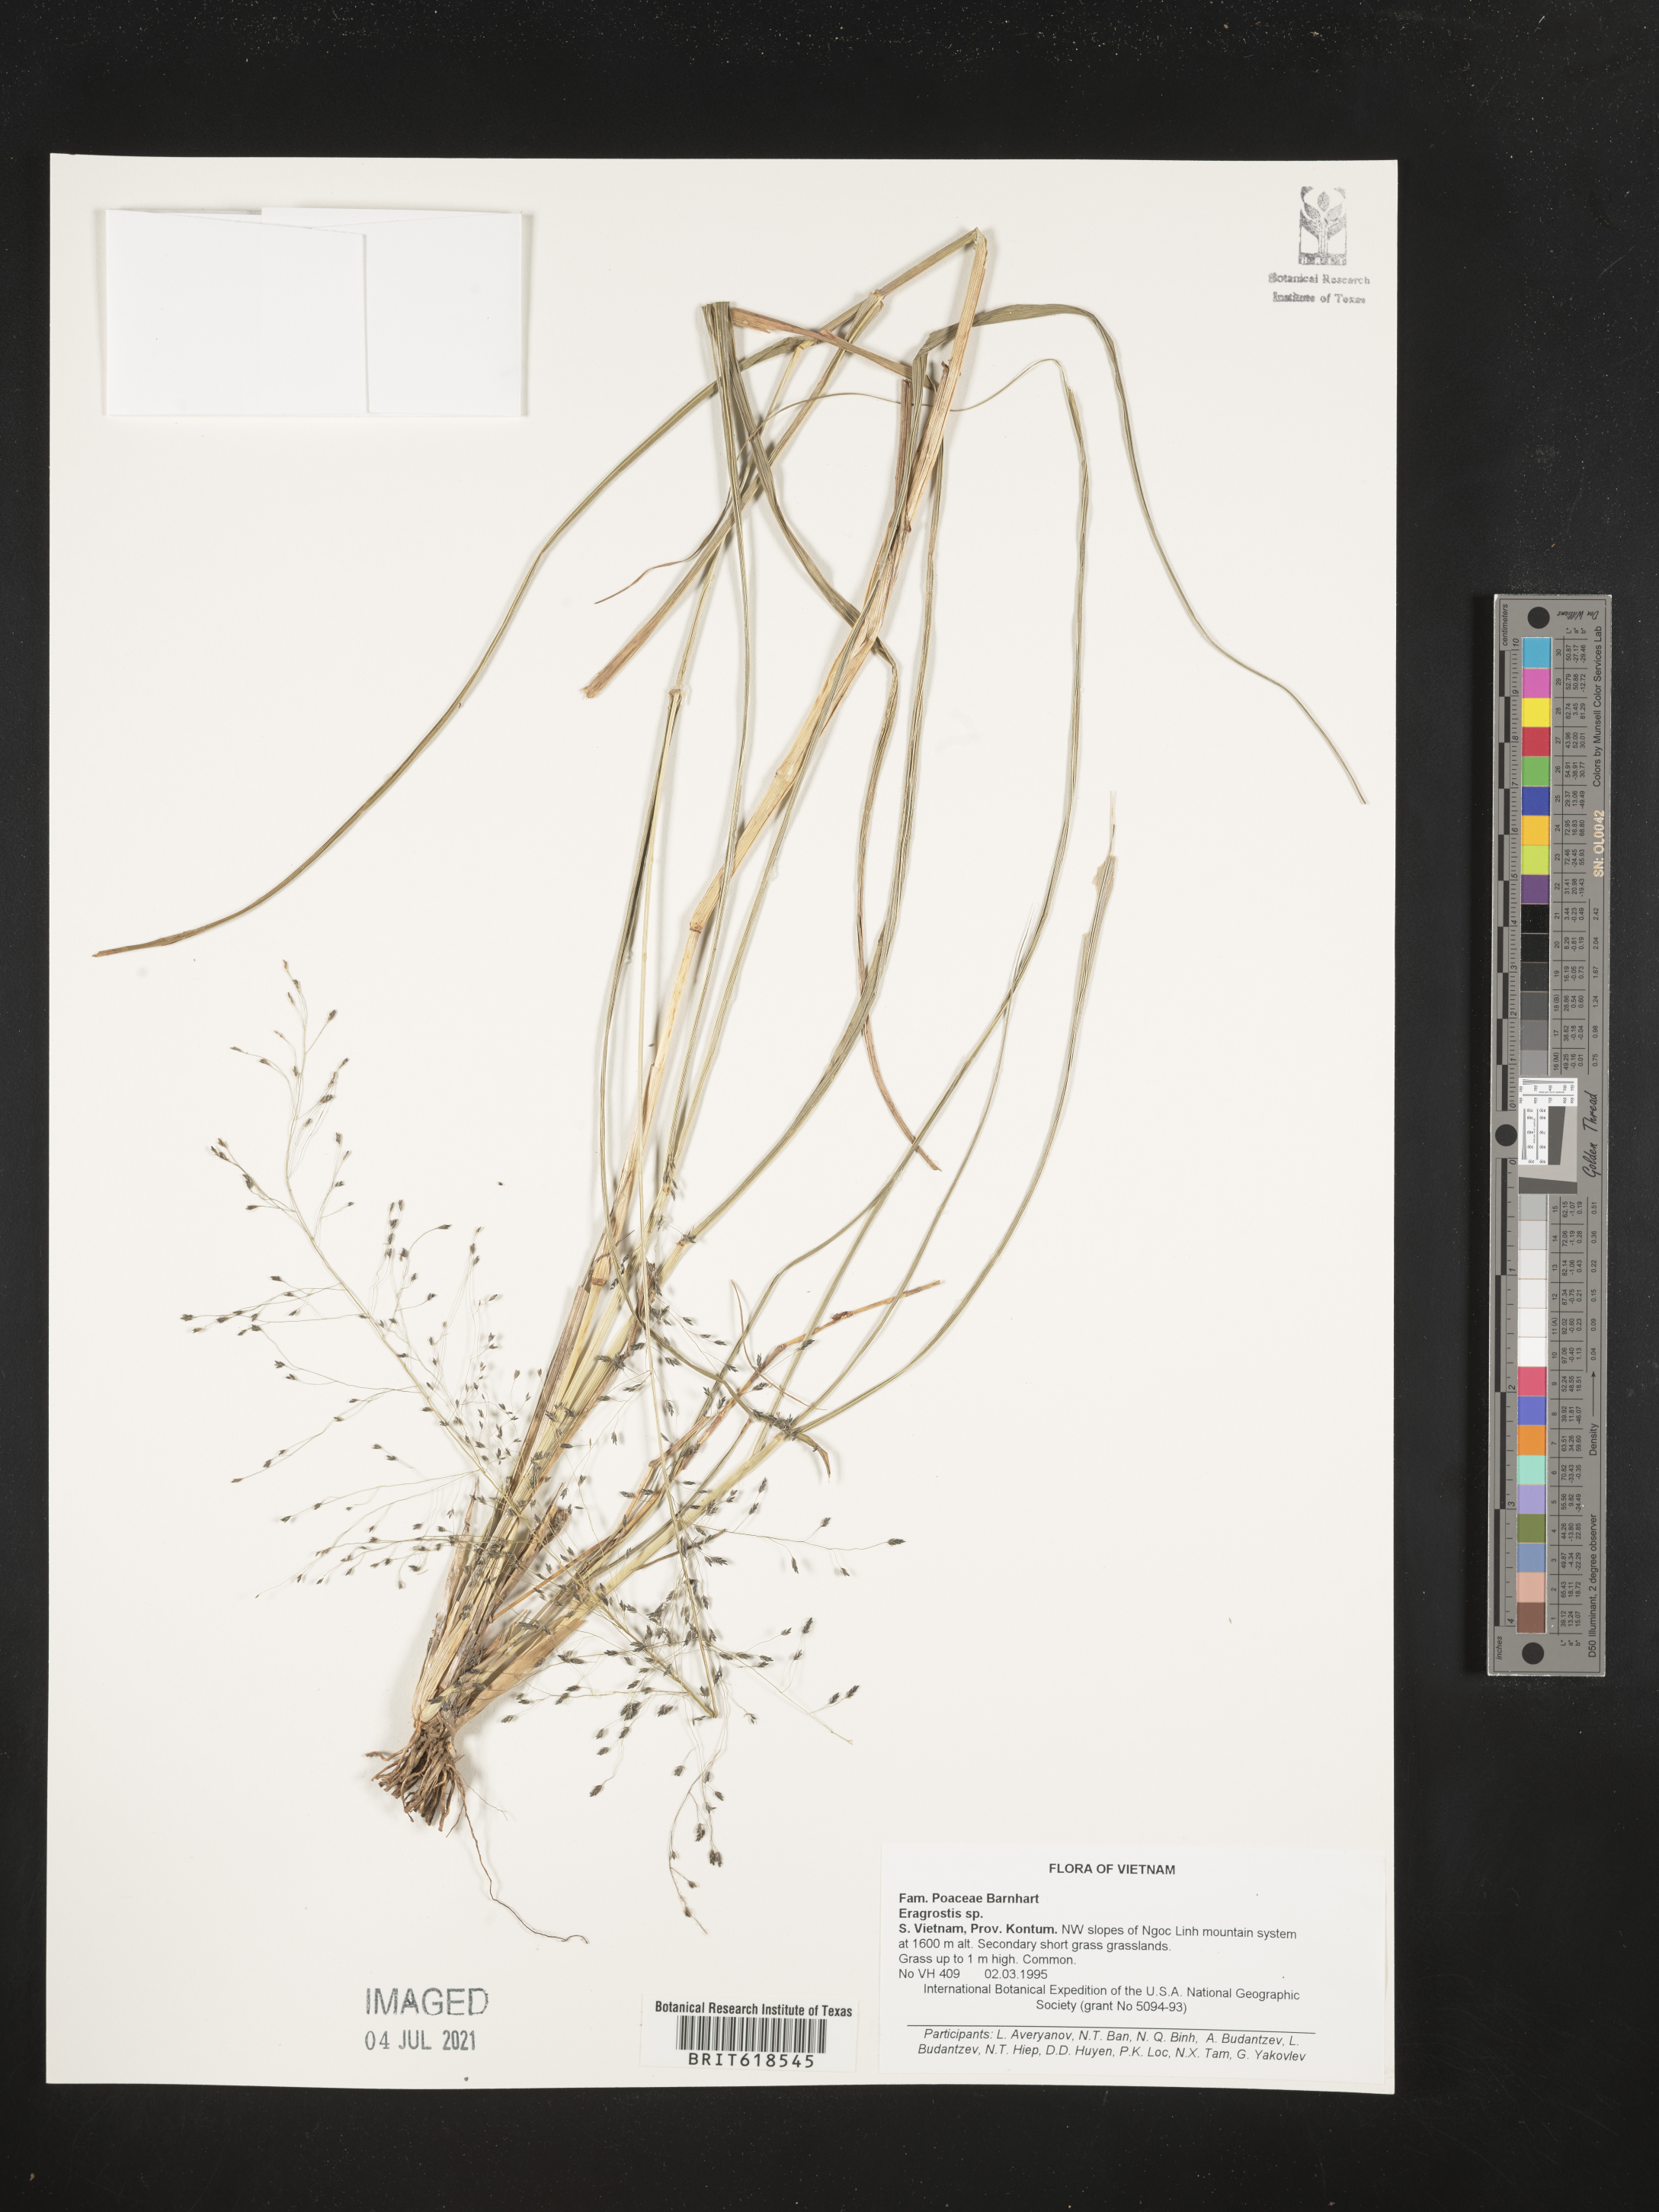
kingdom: Plantae
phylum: Tracheophyta
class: Liliopsida
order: Poales
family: Poaceae
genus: Eragrostis
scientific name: Eragrostis
